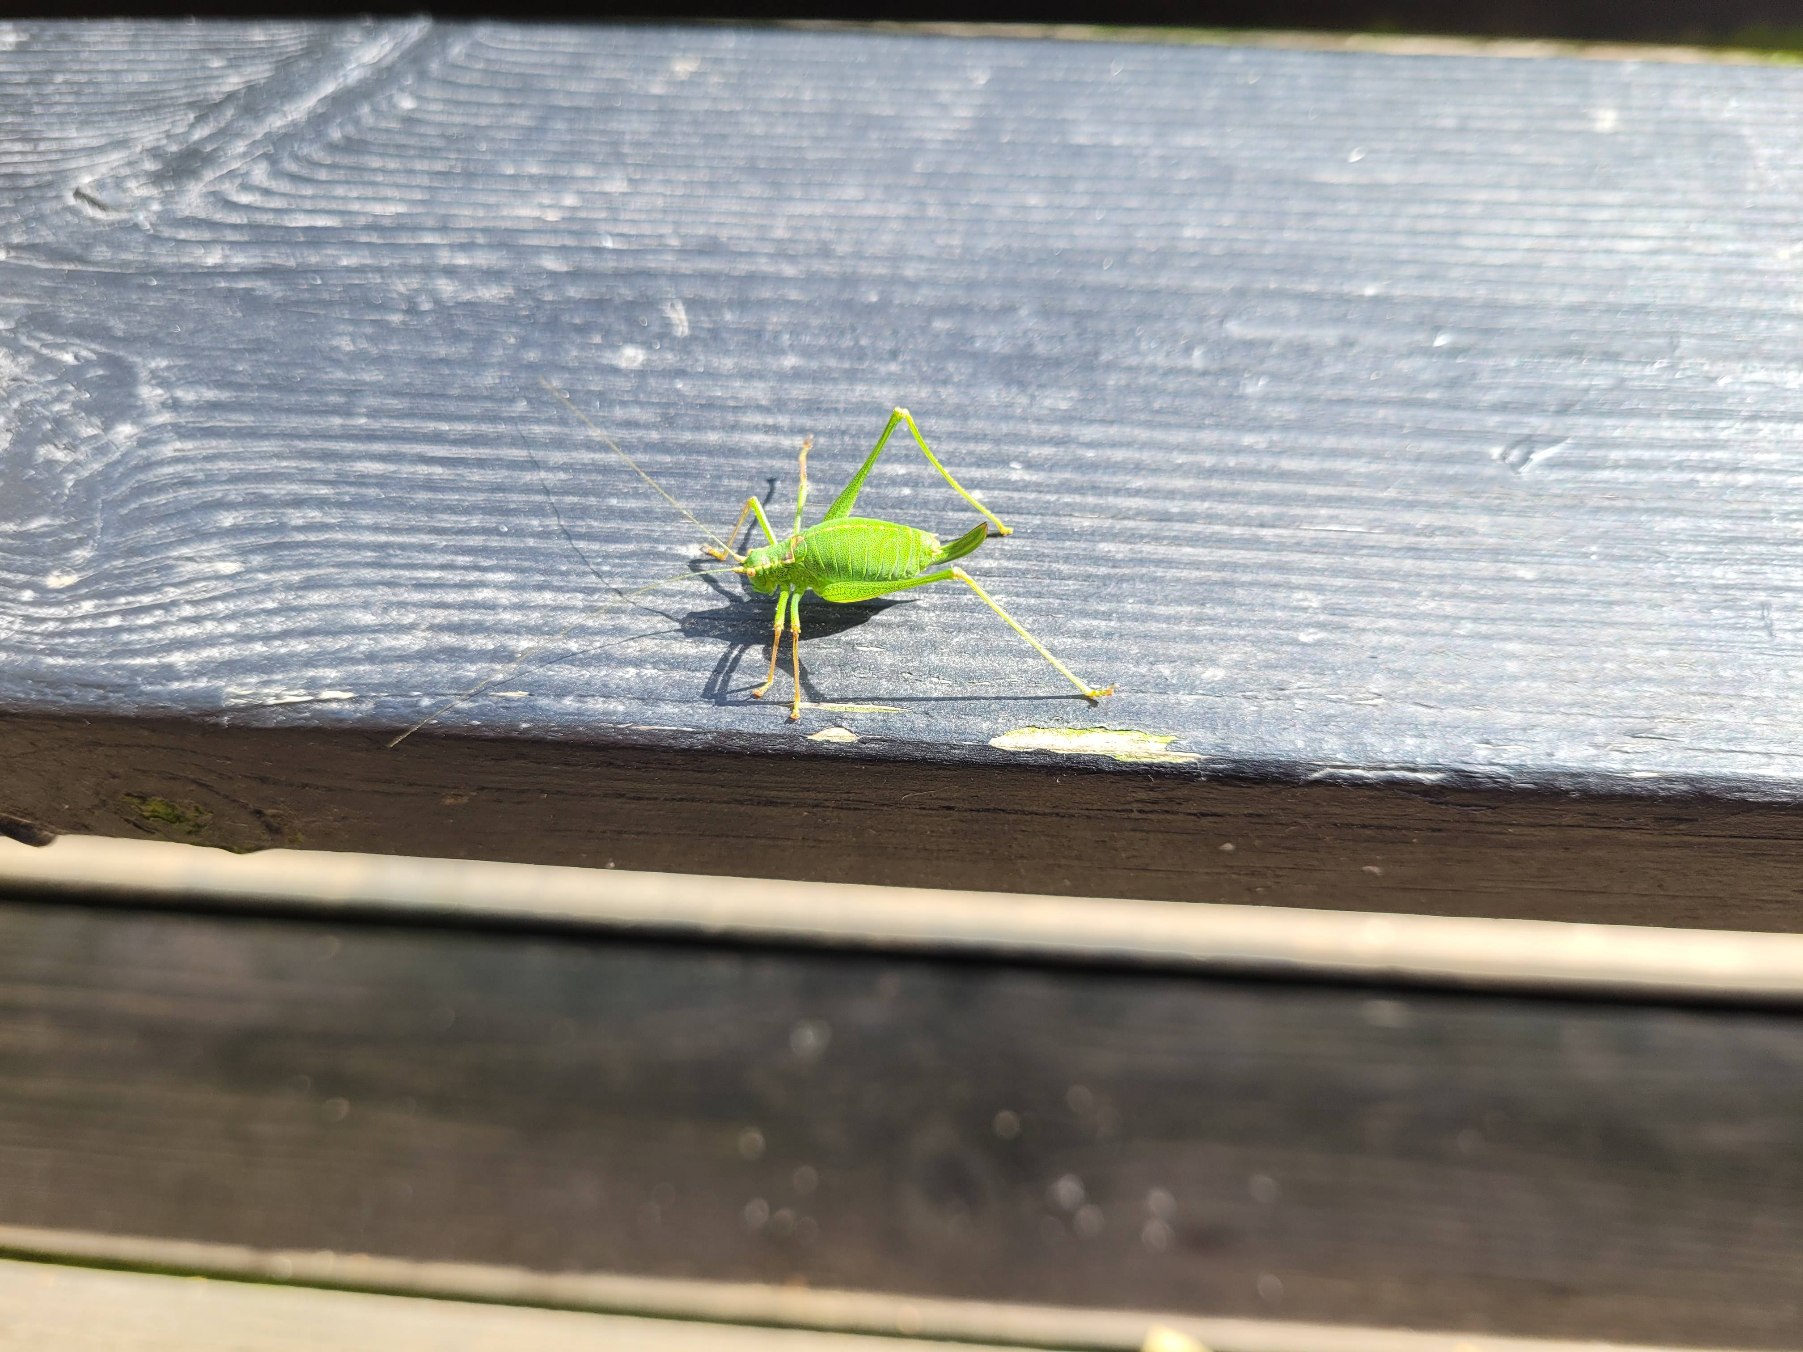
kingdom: Animalia
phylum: Arthropoda
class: Insecta
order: Orthoptera
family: Tettigoniidae
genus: Leptophyes
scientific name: Leptophyes punctatissima
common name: Krumknivgræshoppe
